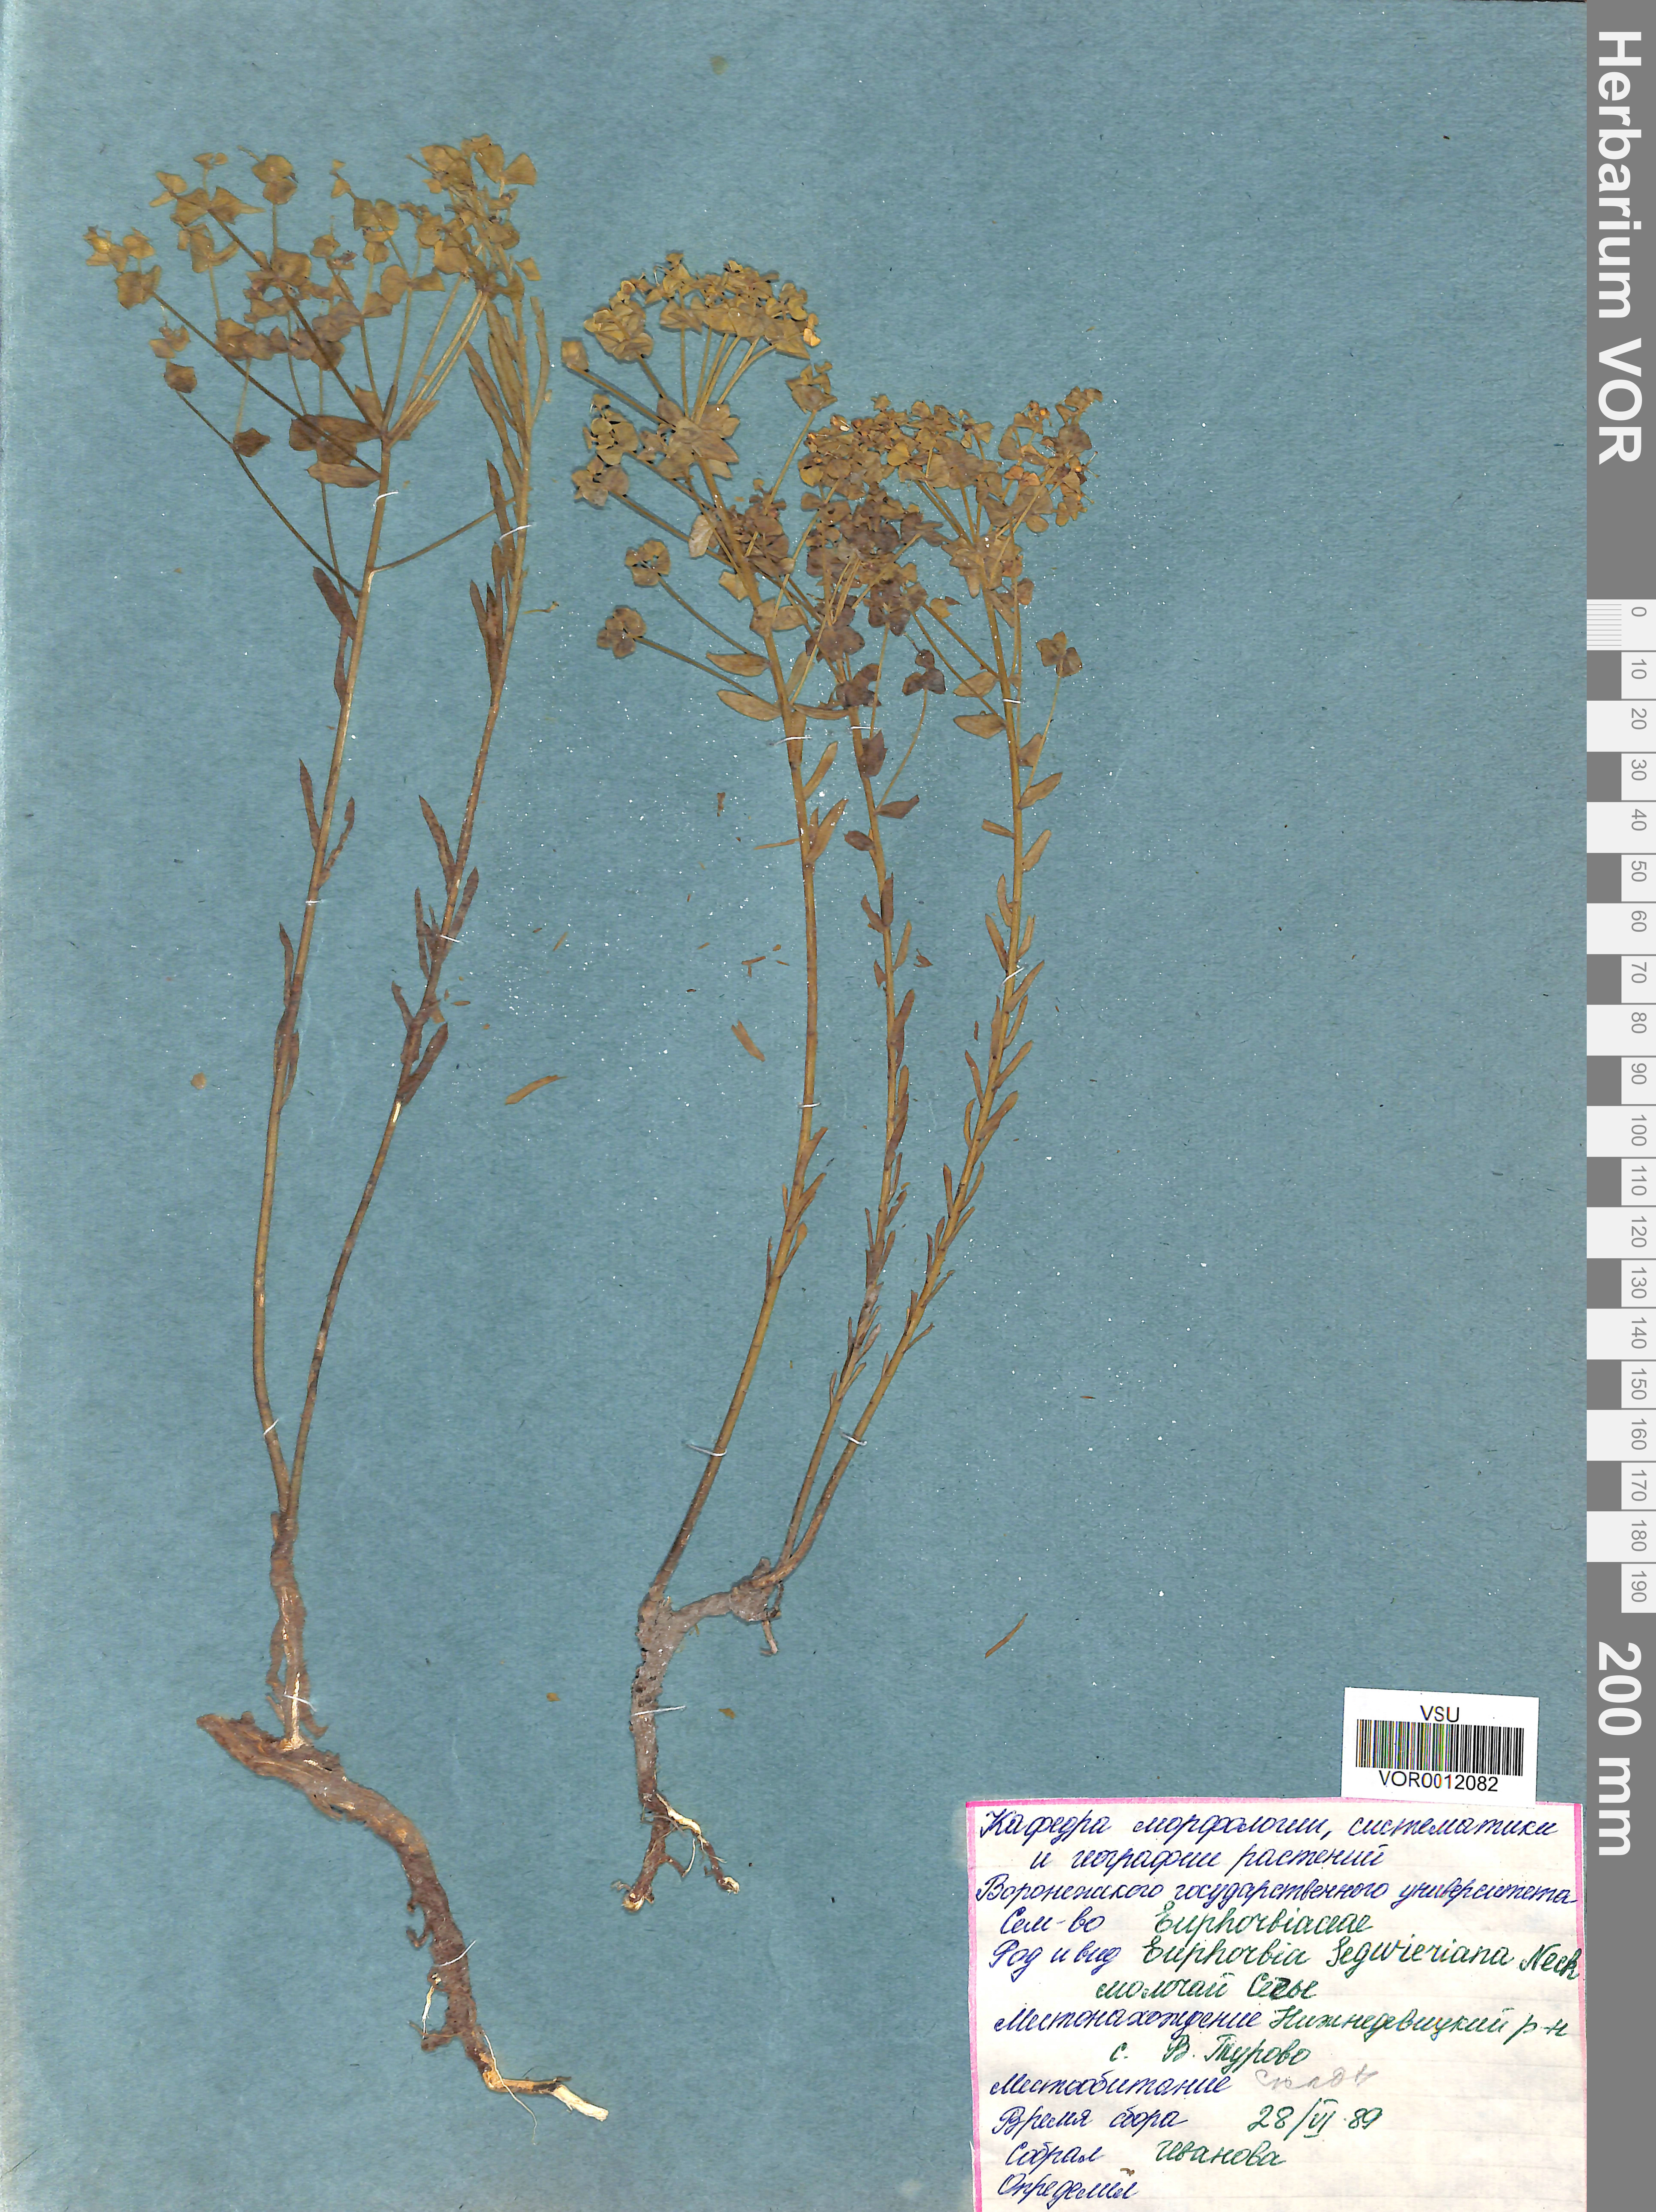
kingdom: Plantae
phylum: Tracheophyta
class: Magnoliopsida
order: Malpighiales
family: Euphorbiaceae
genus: Euphorbia
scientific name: Euphorbia seguieriana
